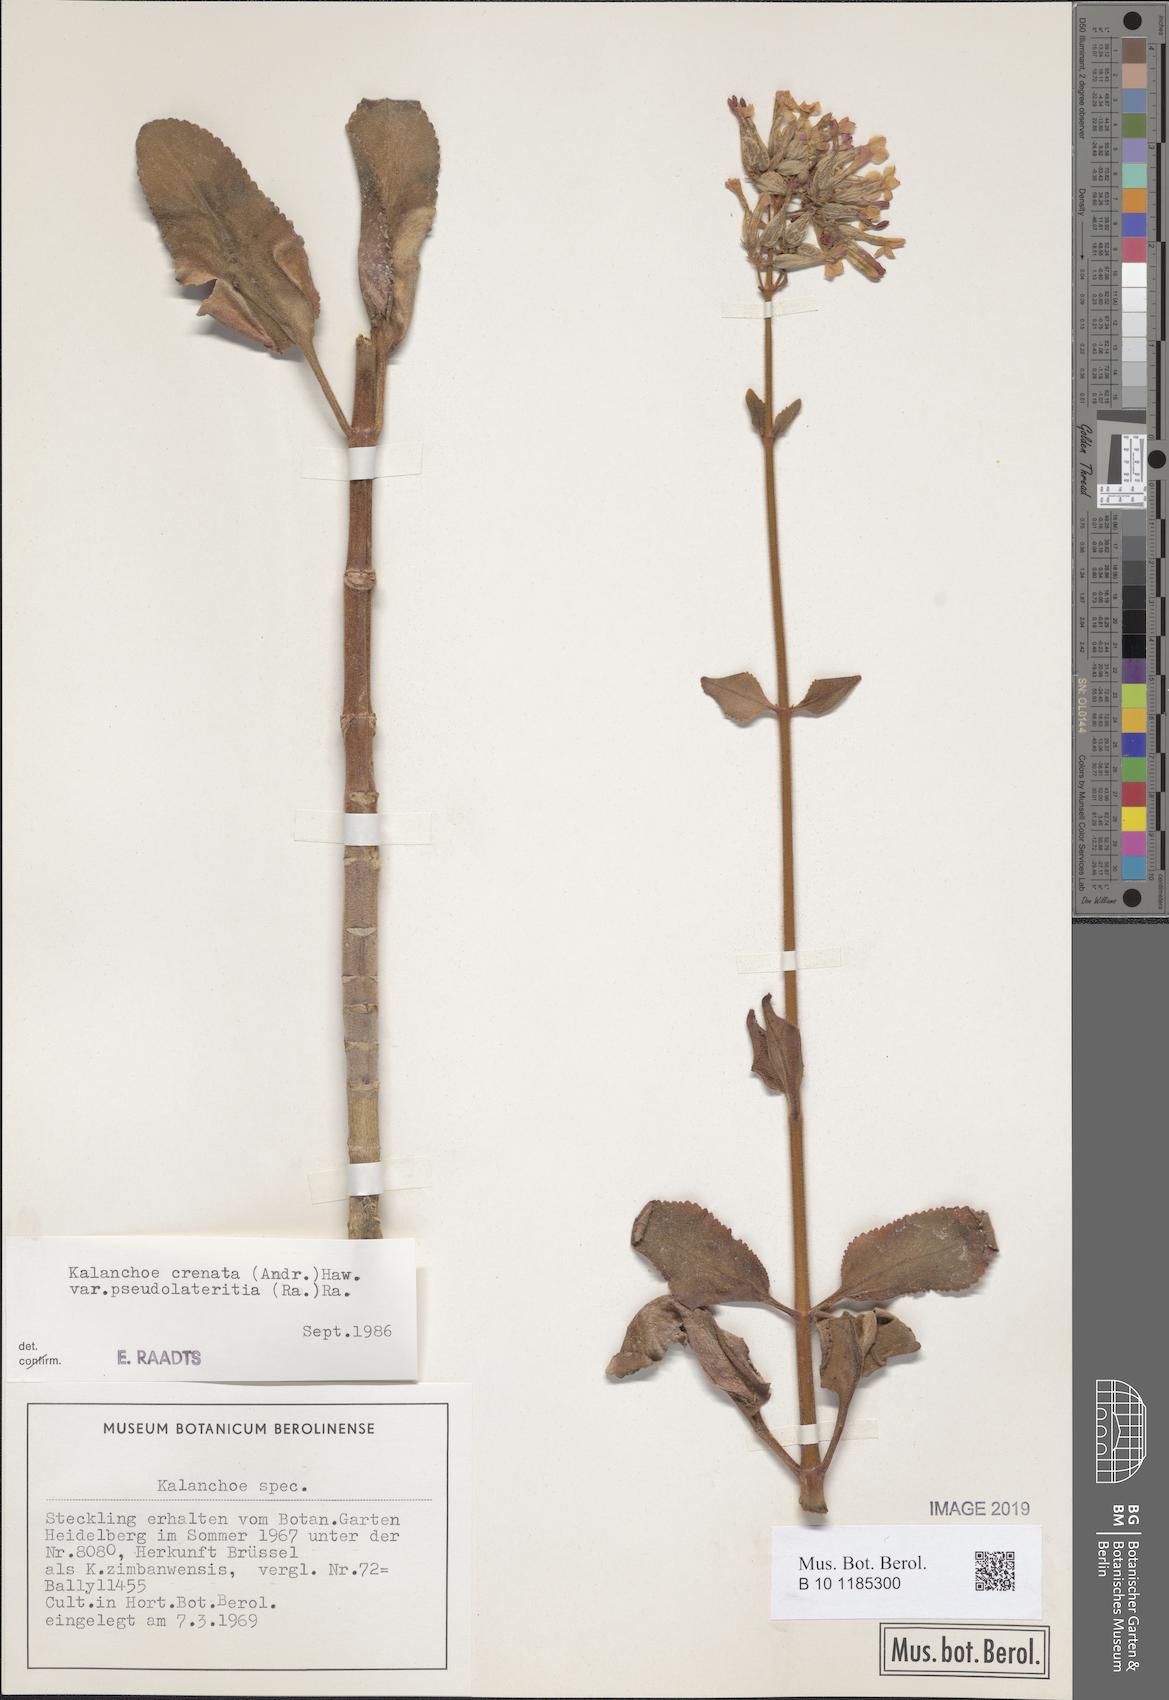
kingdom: Plantae
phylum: Tracheophyta
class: Magnoliopsida
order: Saxifragales
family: Crassulaceae
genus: Kalanchoe
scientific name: Kalanchoe lateritia
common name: Kalanchoe
